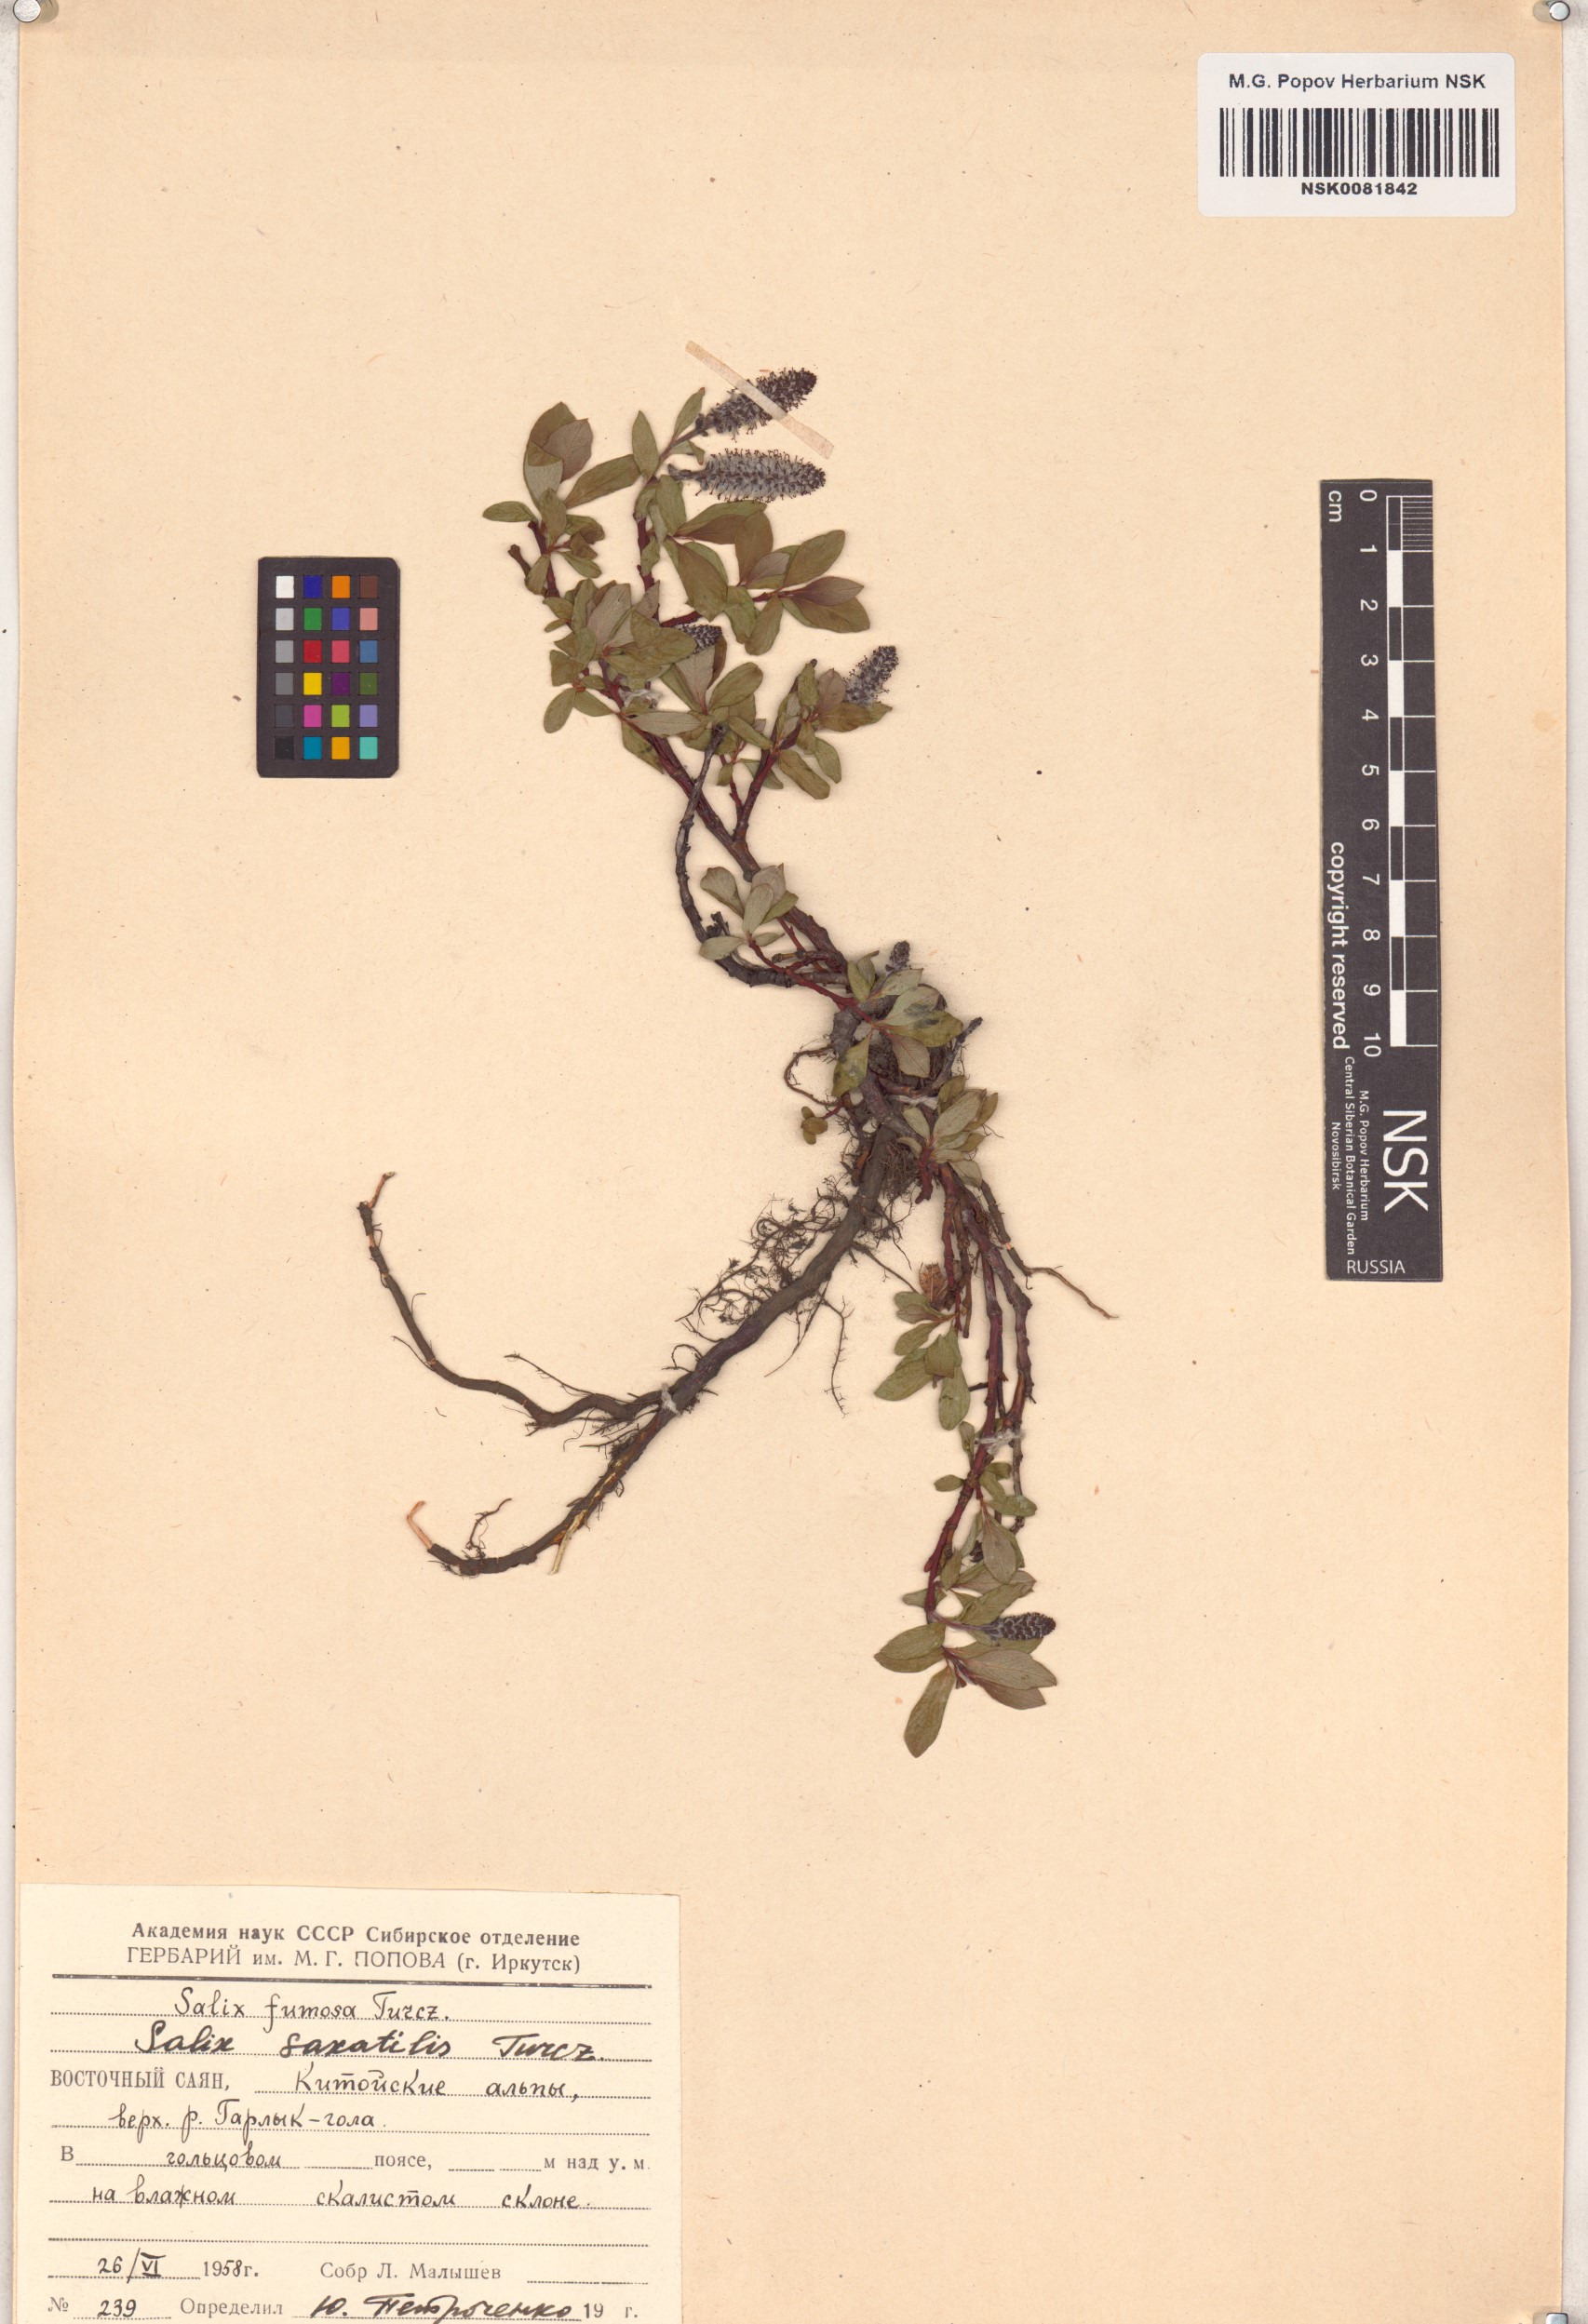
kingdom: Plantae
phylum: Tracheophyta
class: Magnoliopsida
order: Malpighiales
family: Salicaceae
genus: Salix
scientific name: Salix saxatilis
